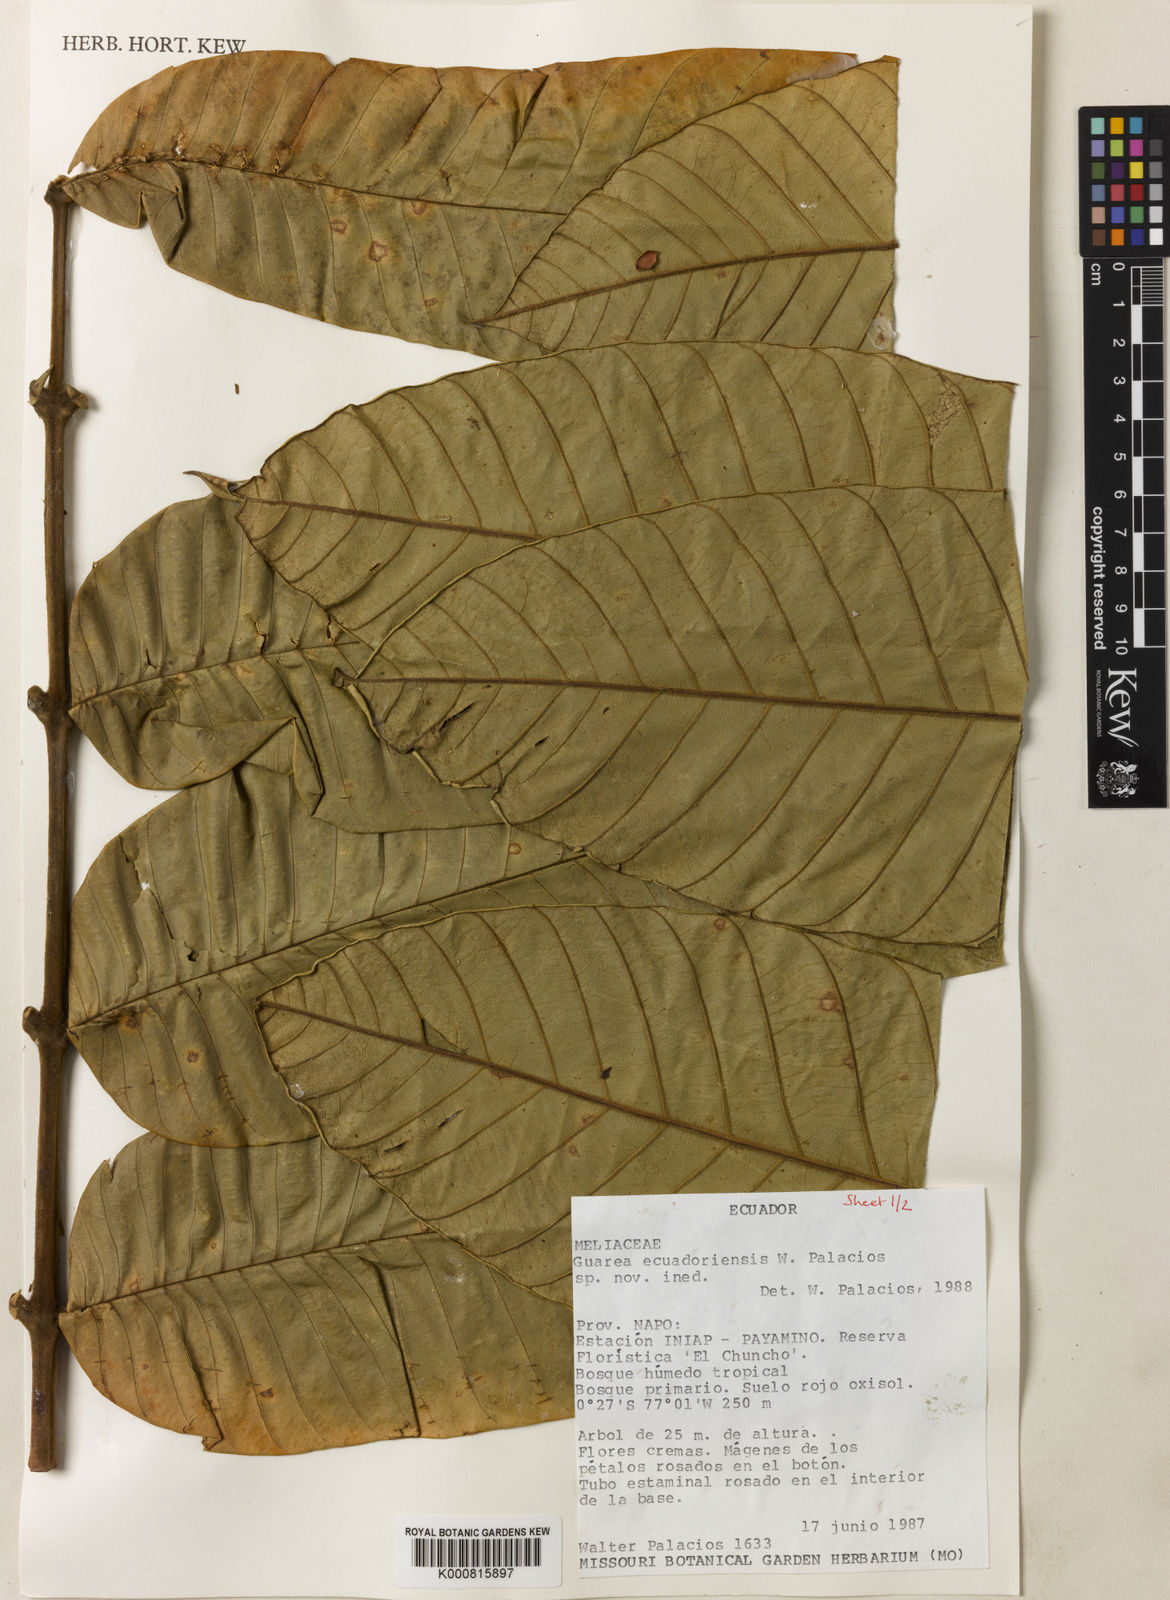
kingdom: Plantae
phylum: Tracheophyta
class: Magnoliopsida
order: Sapindales
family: Meliaceae
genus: Guarea
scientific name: Guarea ecuadoriensis
